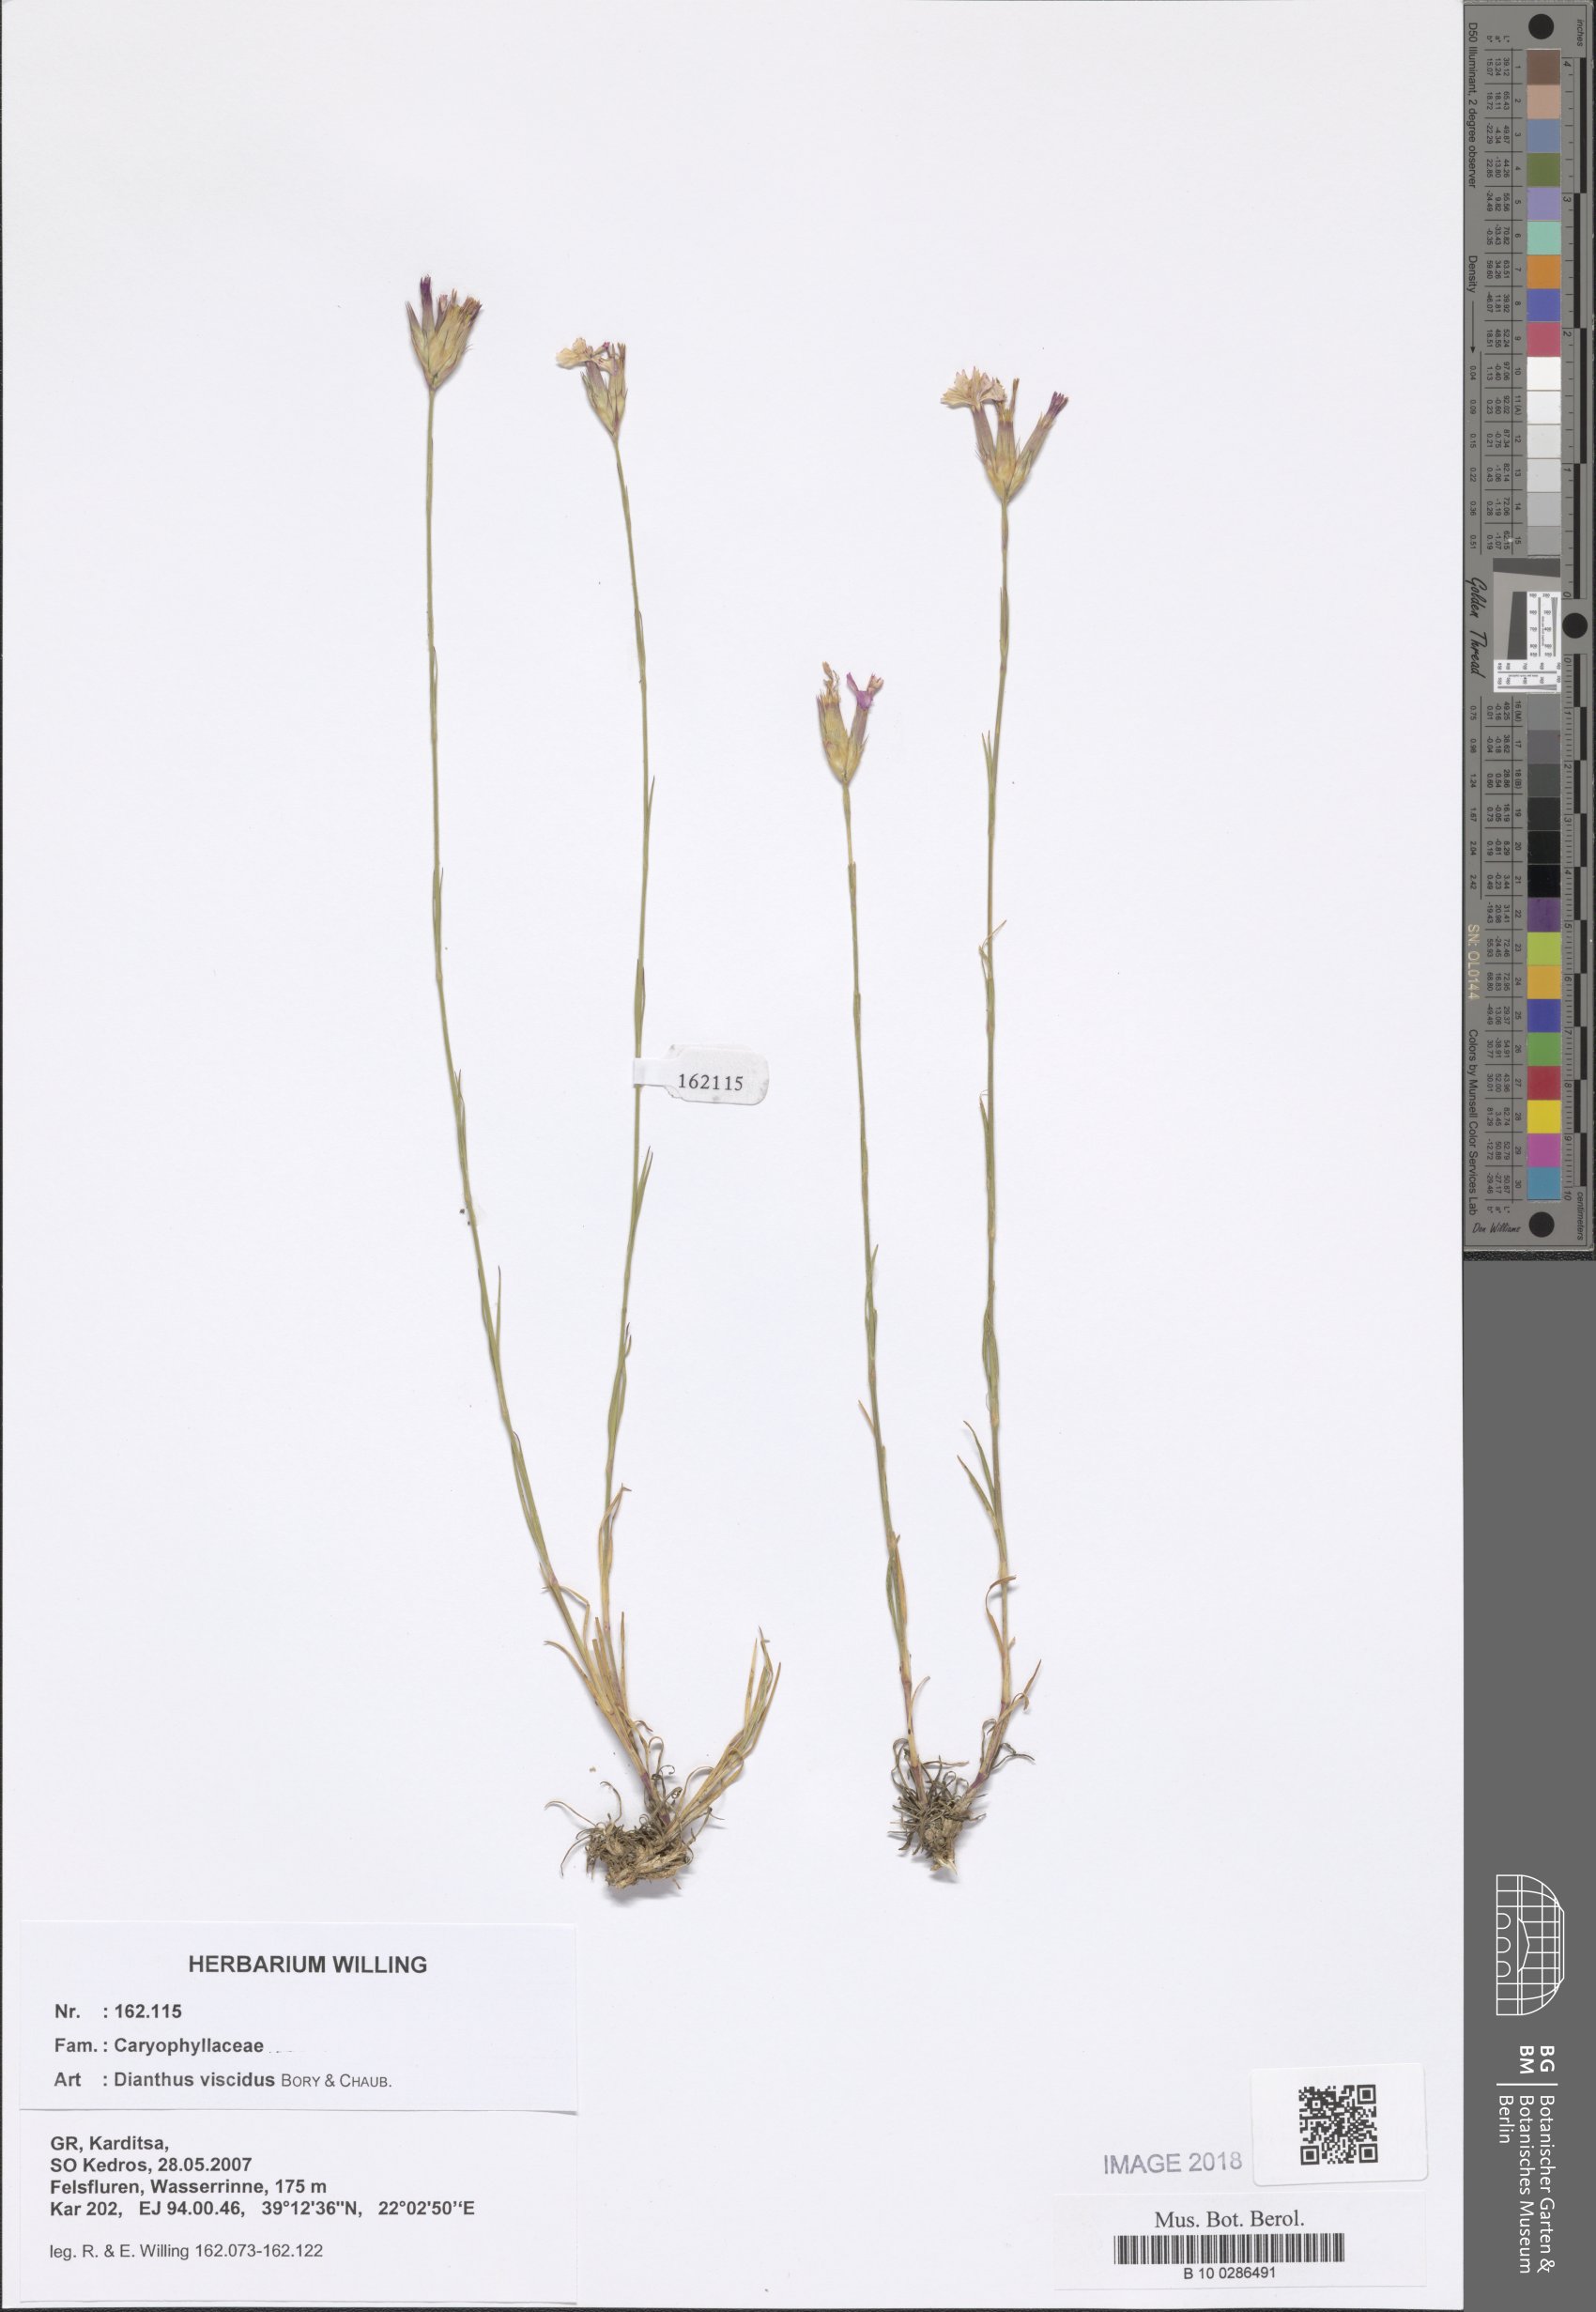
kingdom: Plantae
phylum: Tracheophyta
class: Magnoliopsida
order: Caryophyllales
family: Caryophyllaceae
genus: Dianthus
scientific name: Dianthus viscidus
